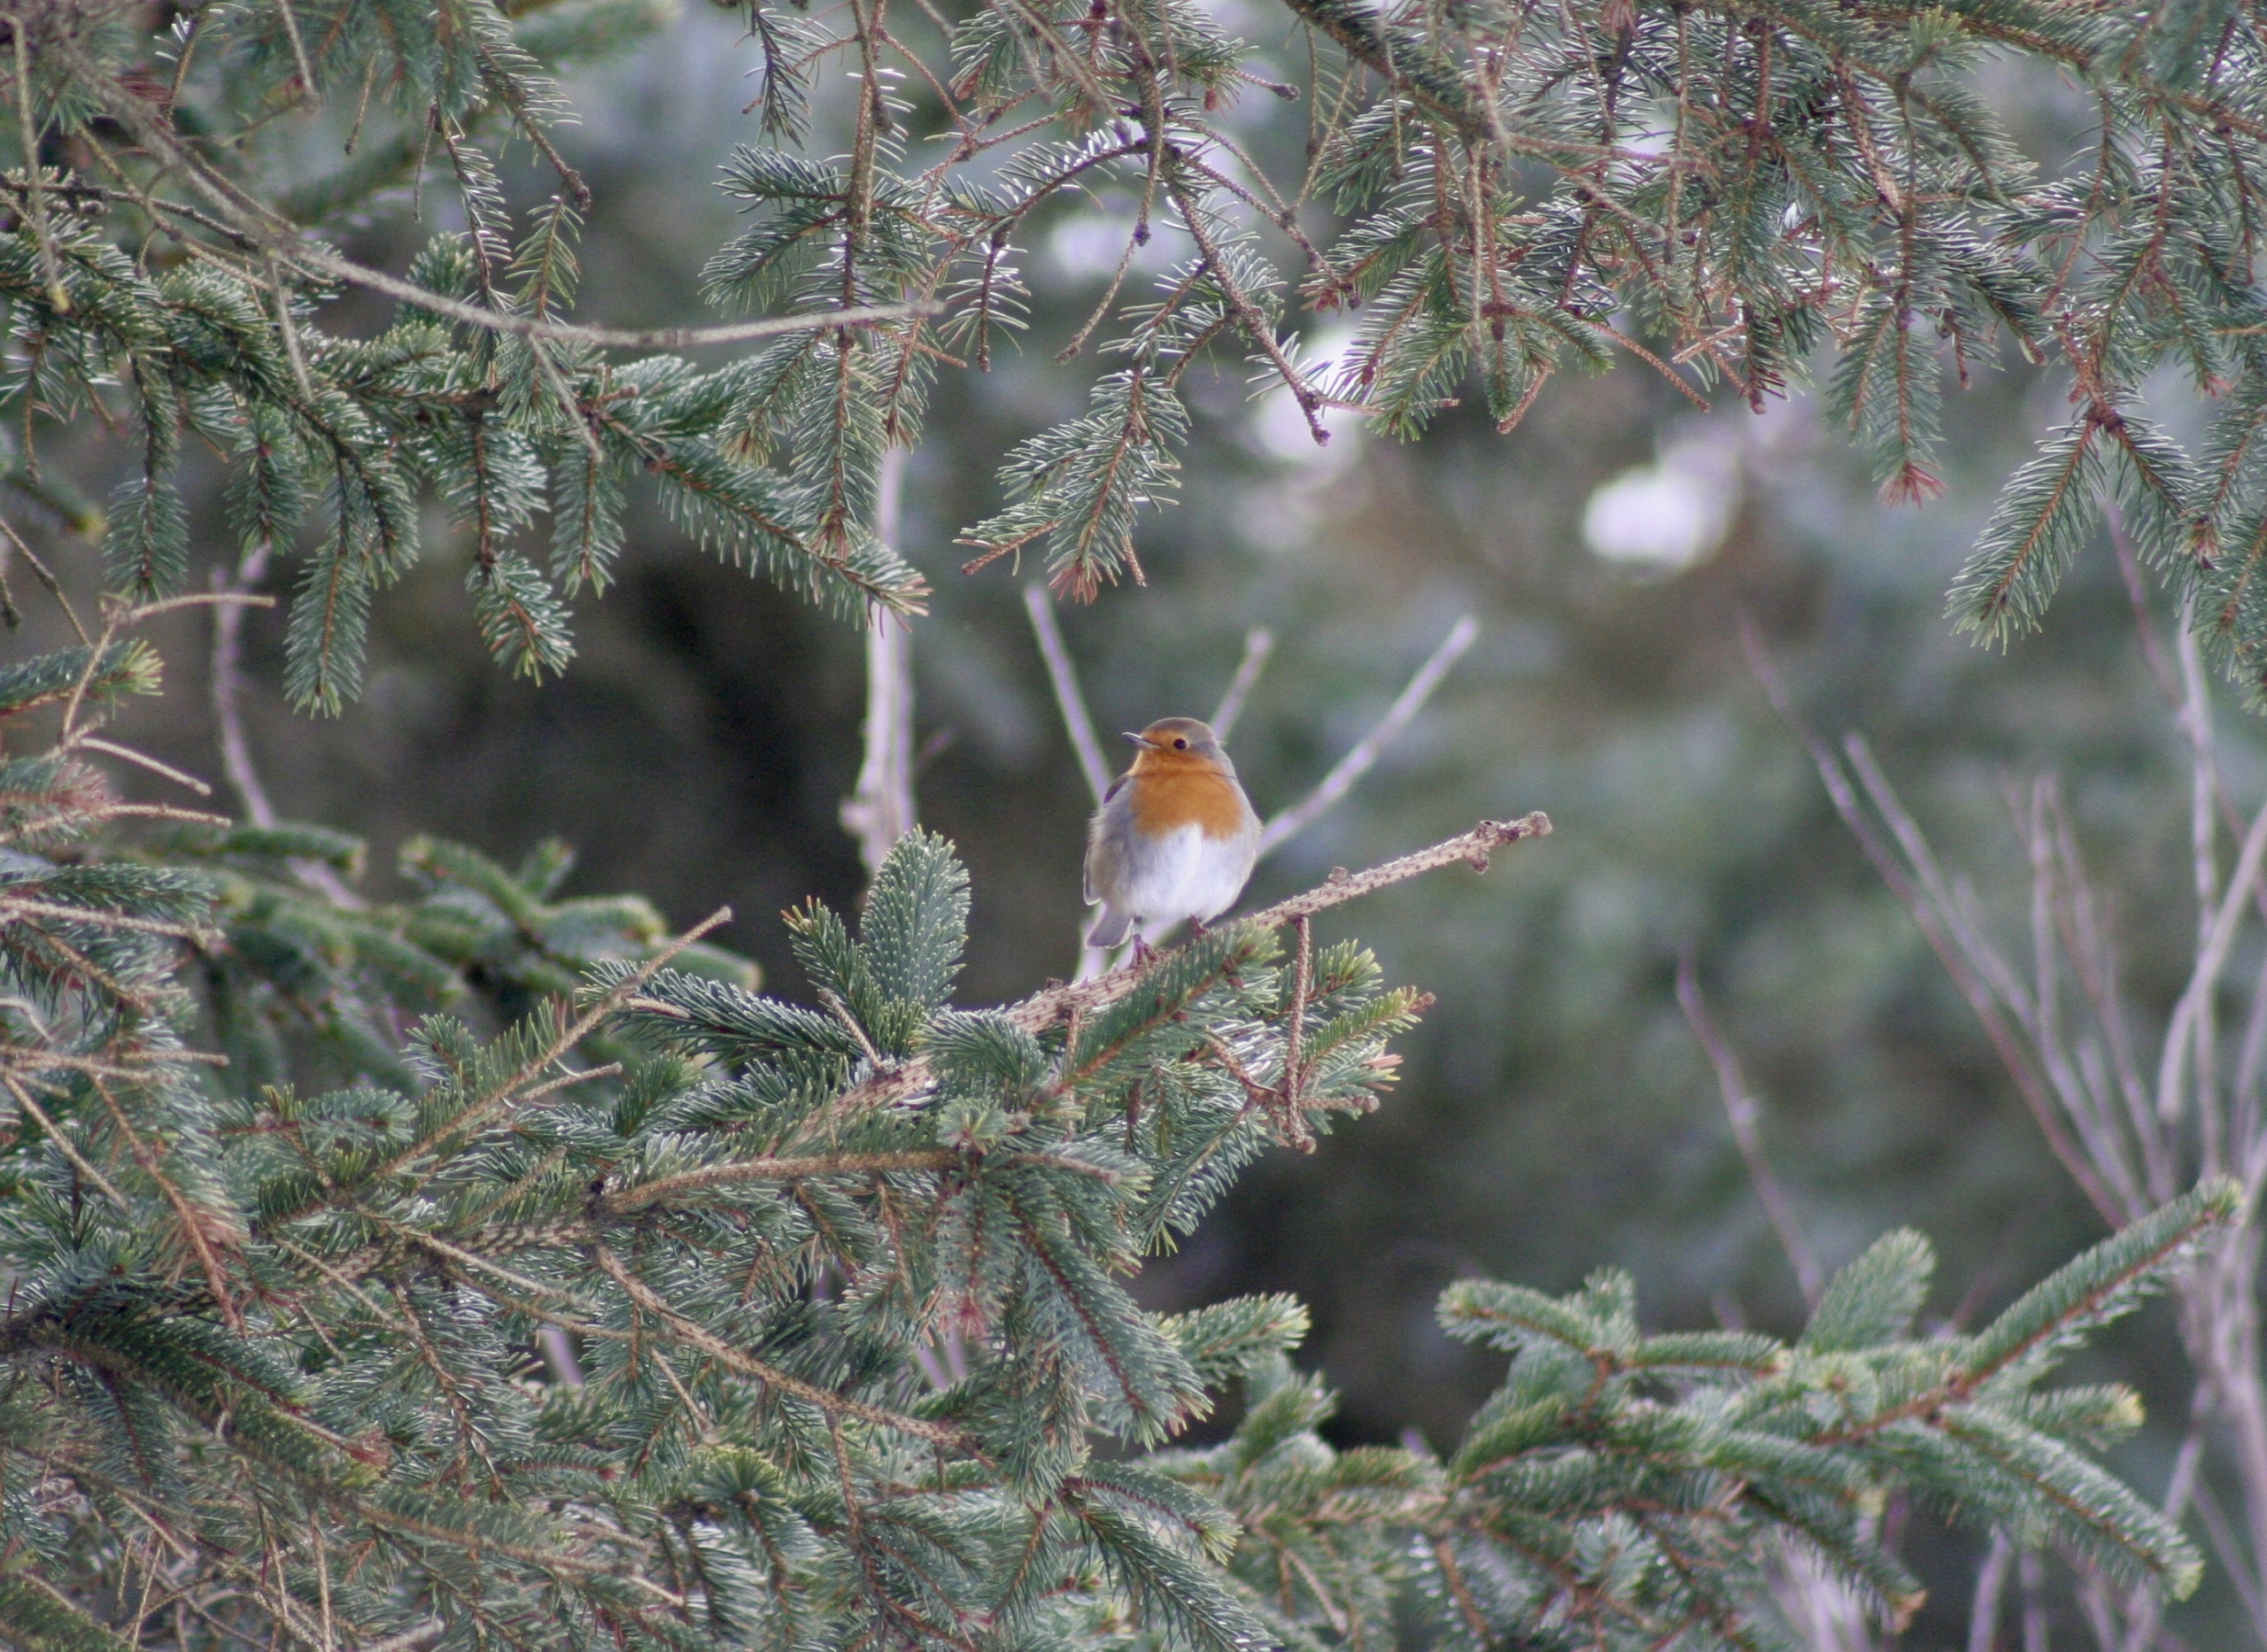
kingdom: Animalia
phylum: Chordata
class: Aves
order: Passeriformes
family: Muscicapidae
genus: Erithacus
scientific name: Erithacus rubecula
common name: Rødhals/rødkælk
